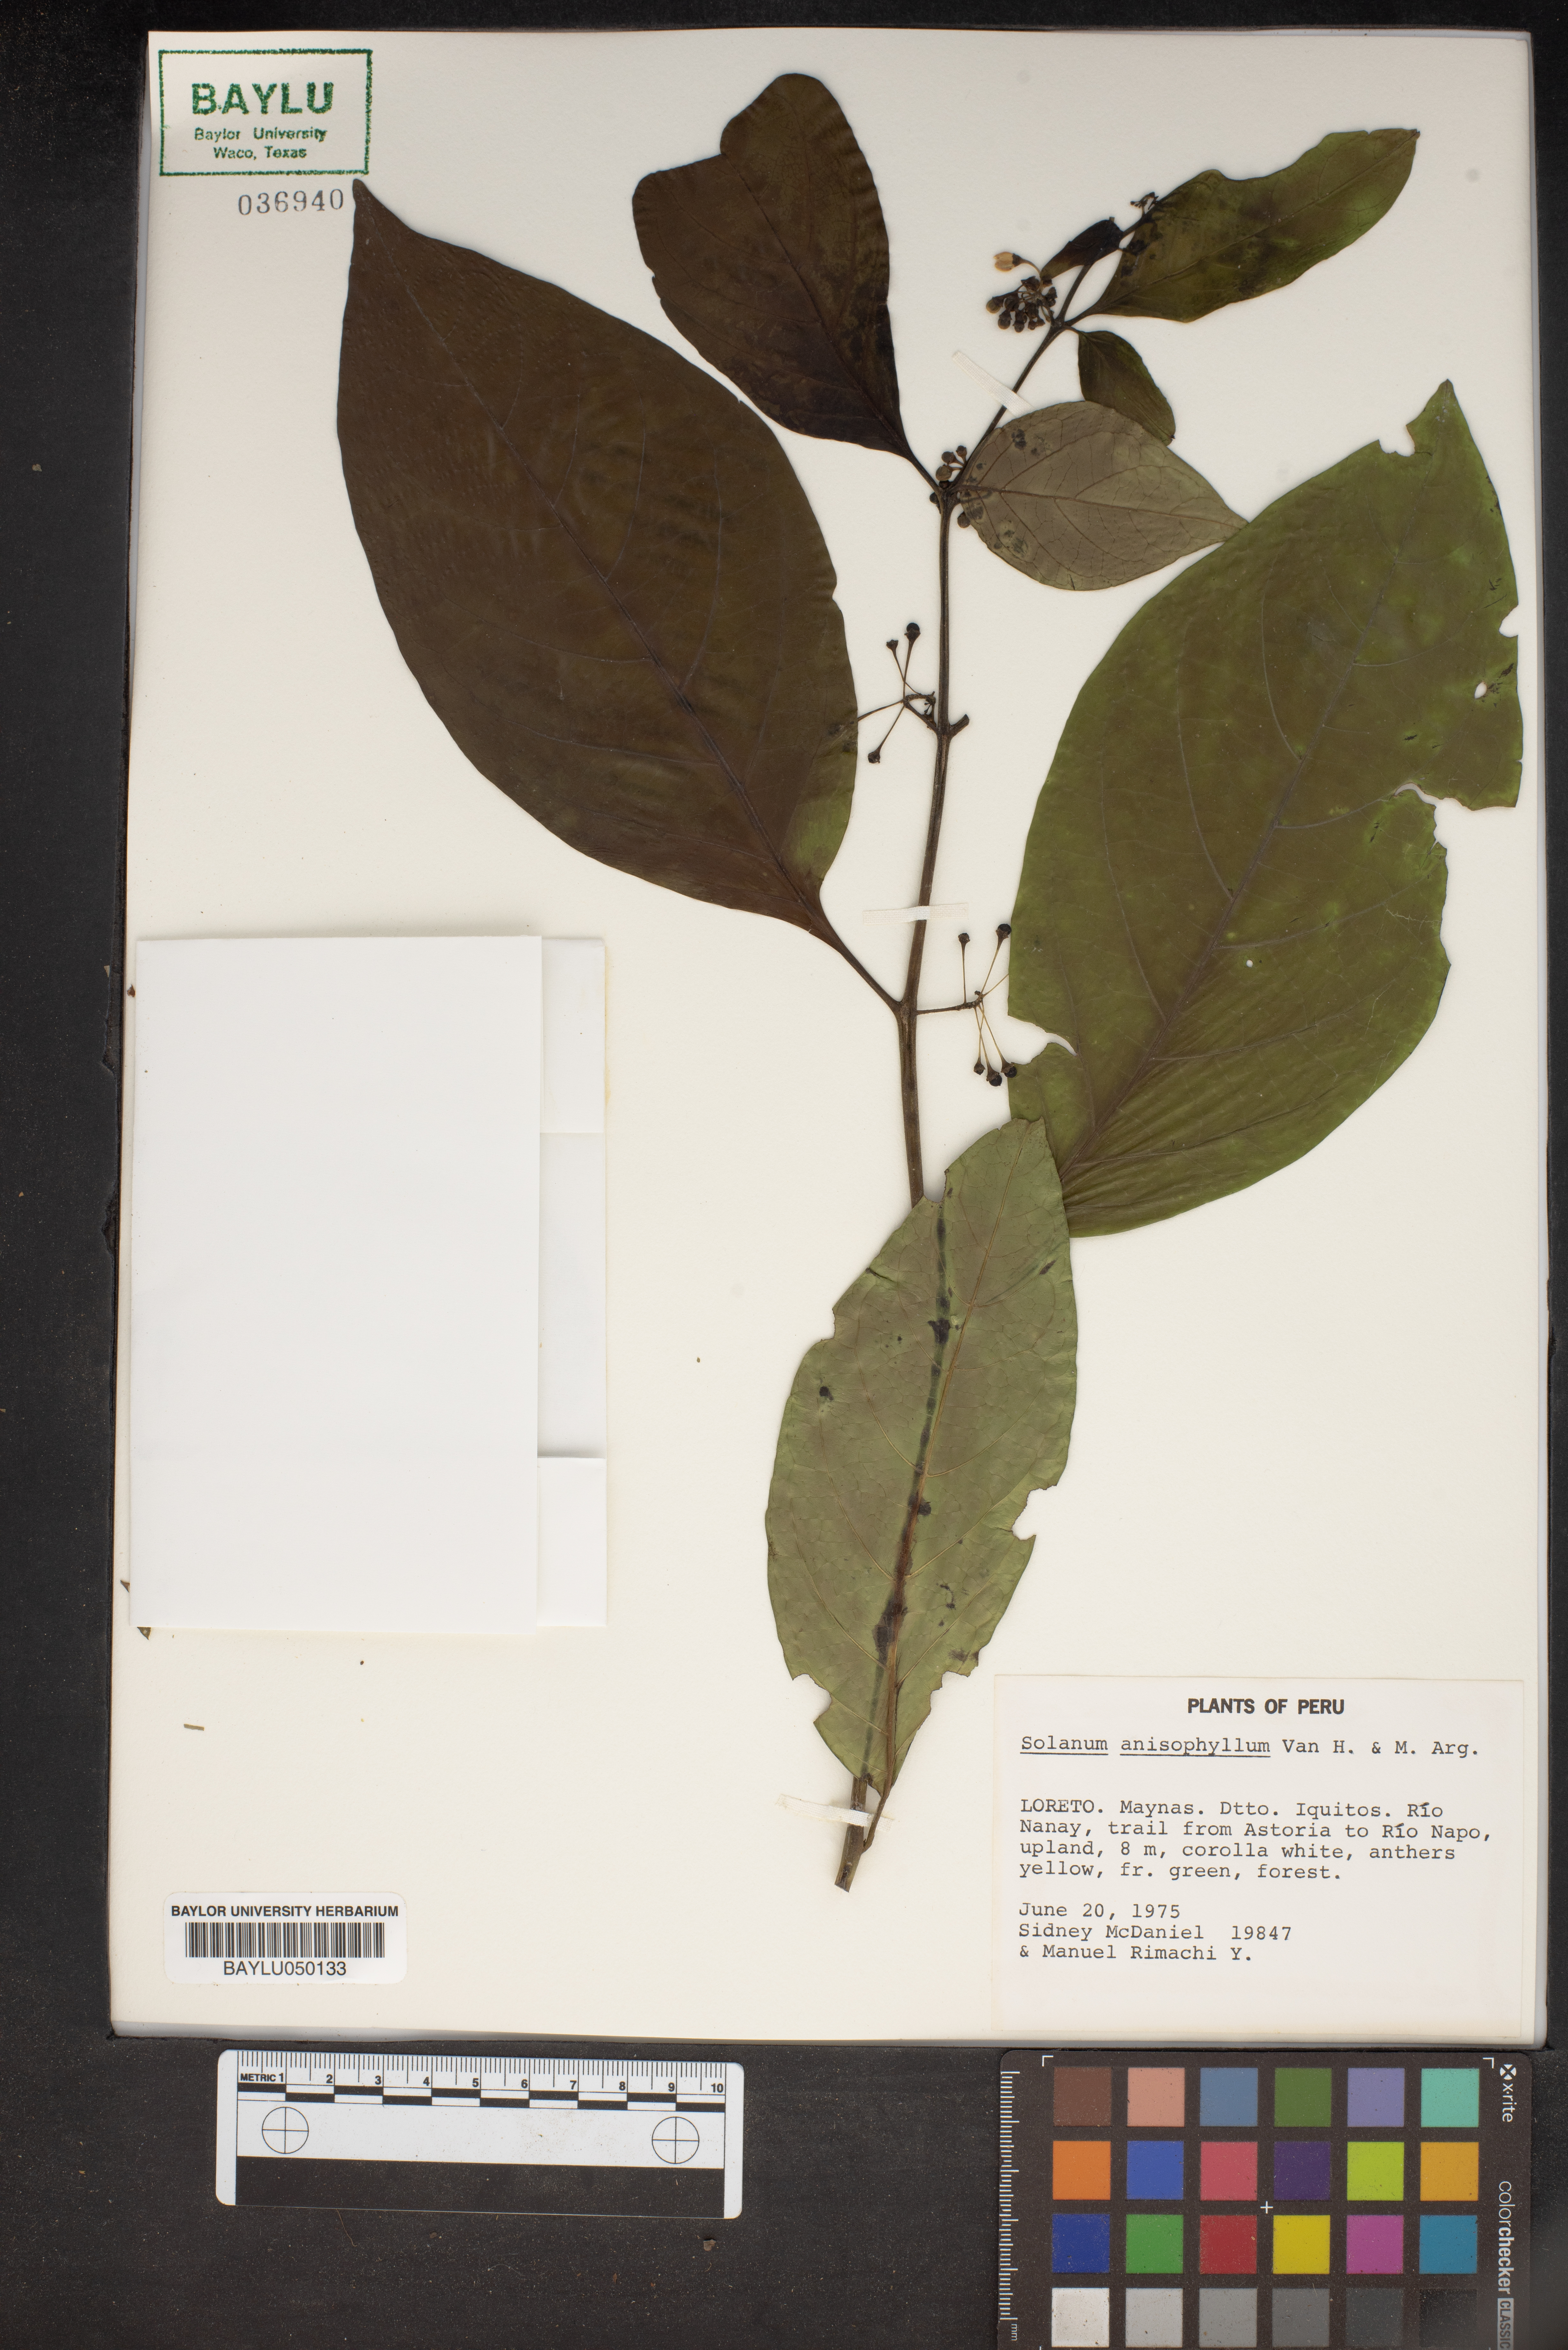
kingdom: Plantae
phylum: Tracheophyta
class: Magnoliopsida
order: Solanales
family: Solanaceae
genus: Solanum
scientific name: Solanum anisophyllum
